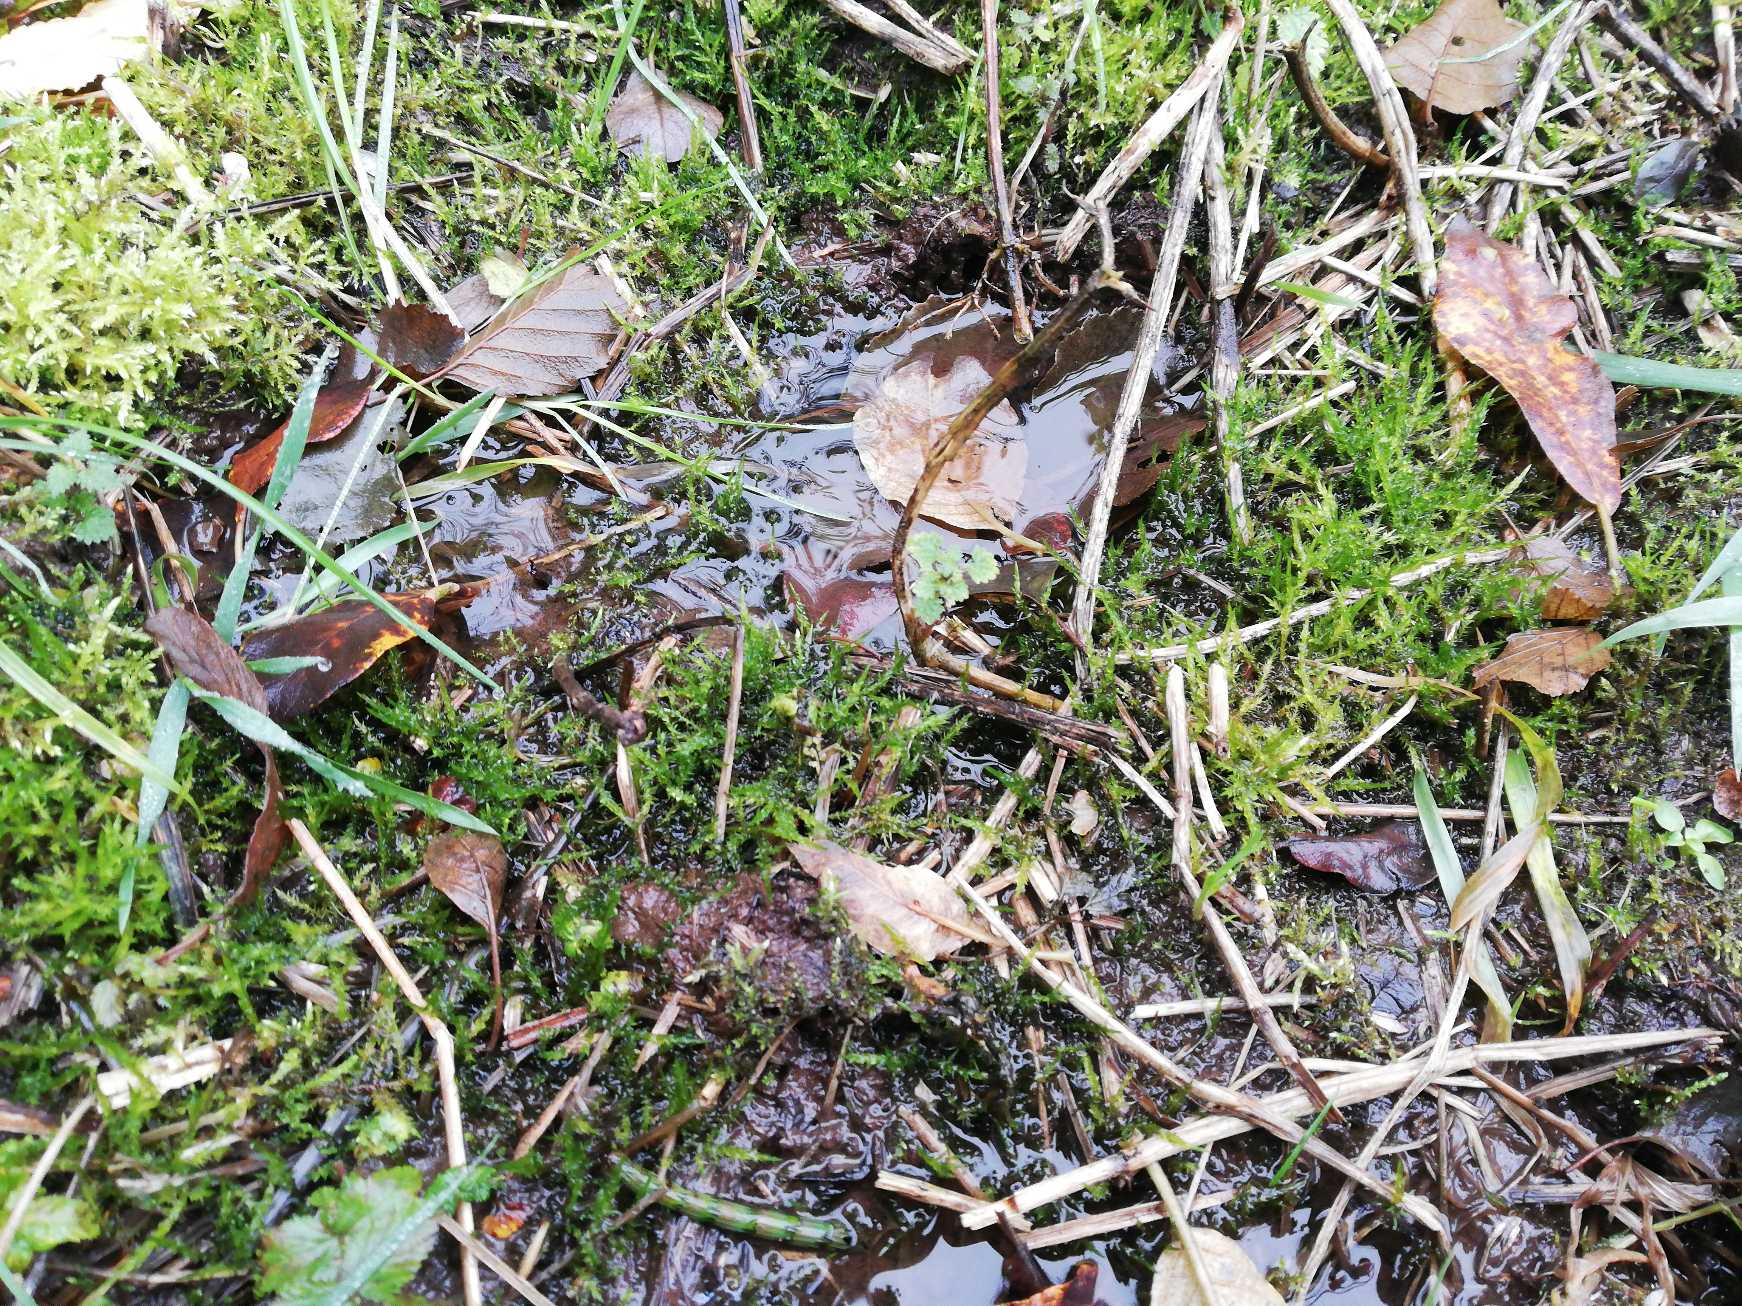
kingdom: Plantae
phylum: Bryophyta
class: Bryopsida
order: Hypnales
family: Pylaisiaceae
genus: Calliergonella
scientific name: Calliergonella cuspidata
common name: Spids spydmos
